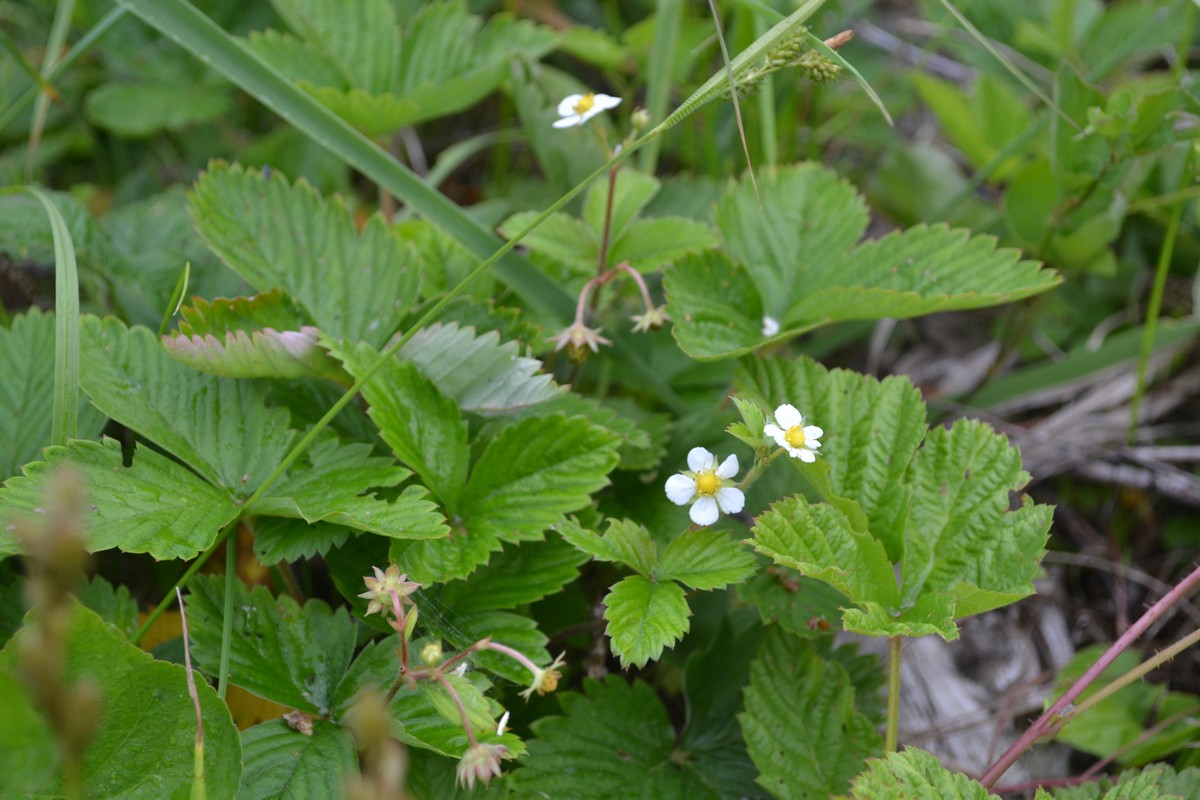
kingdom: Plantae
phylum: Tracheophyta
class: Magnoliopsida
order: Rosales
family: Rosaceae
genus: Fragaria
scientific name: Fragaria vesca
